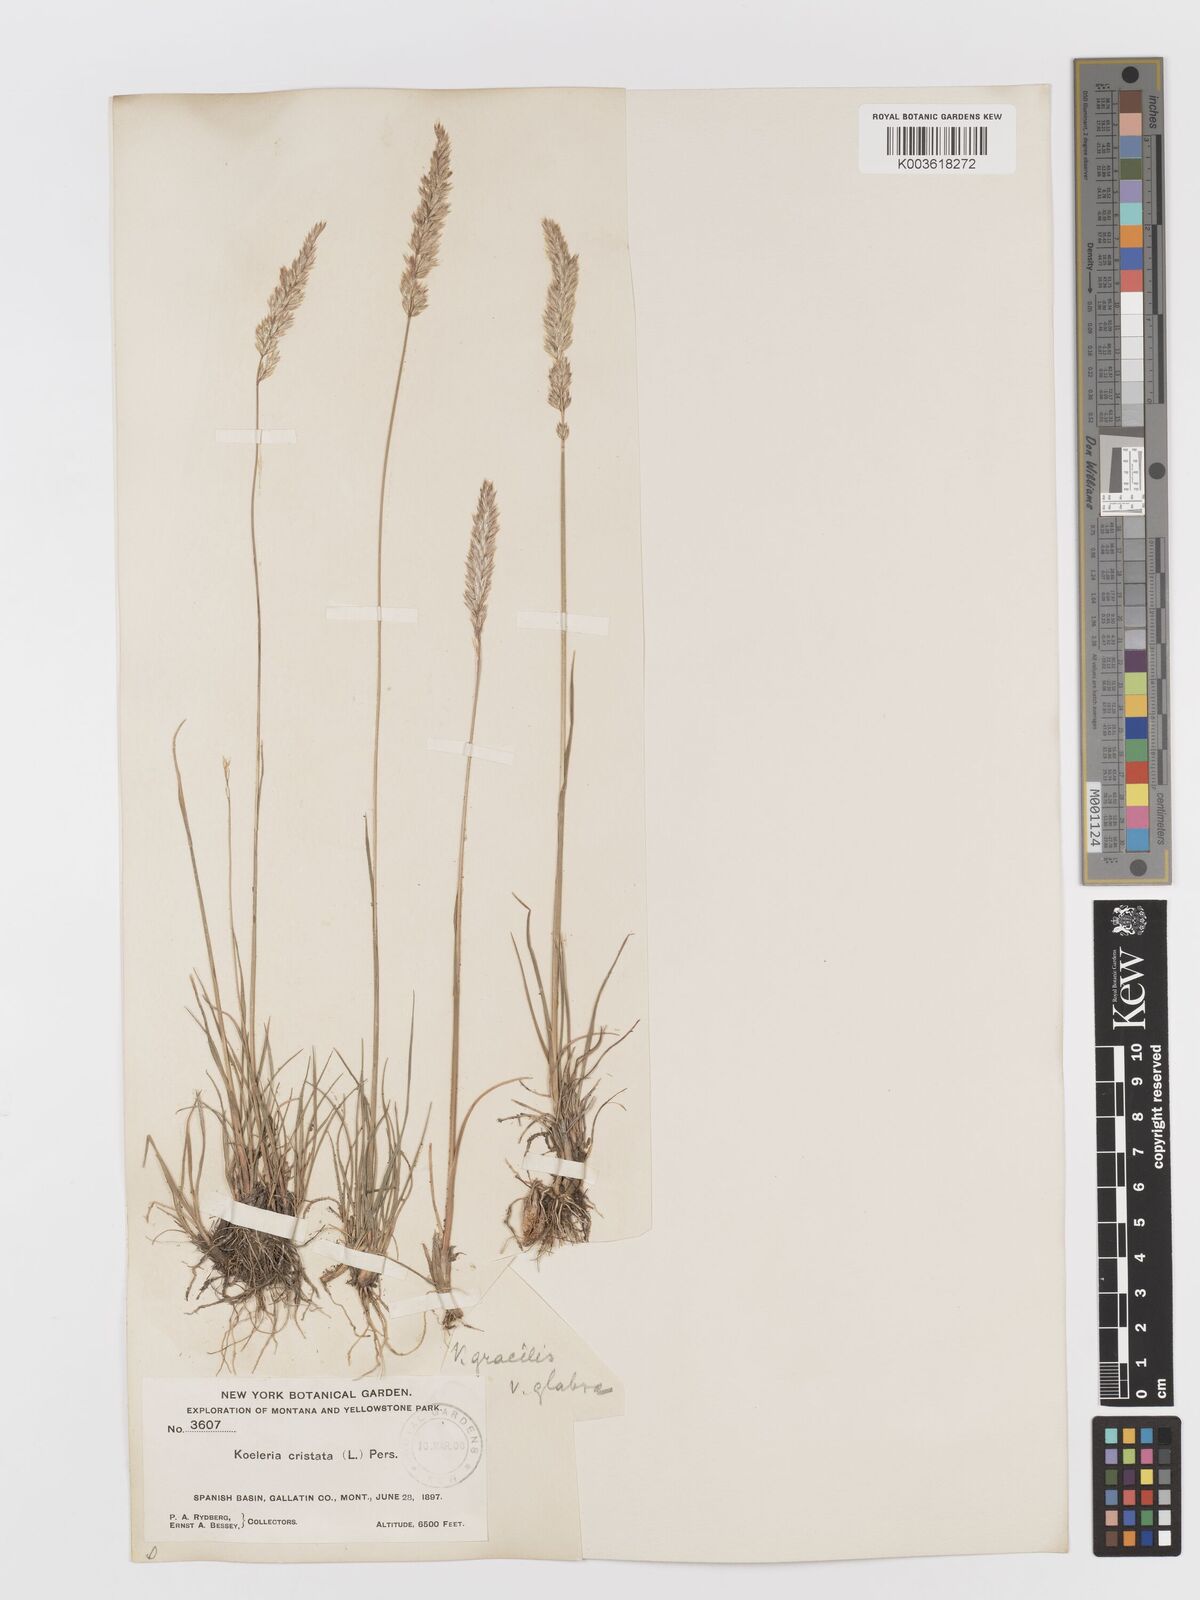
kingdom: Plantae
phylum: Tracheophyta
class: Liliopsida
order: Poales
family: Poaceae
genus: Koeleria
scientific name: Koeleria macrantha
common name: Crested hair-grass
